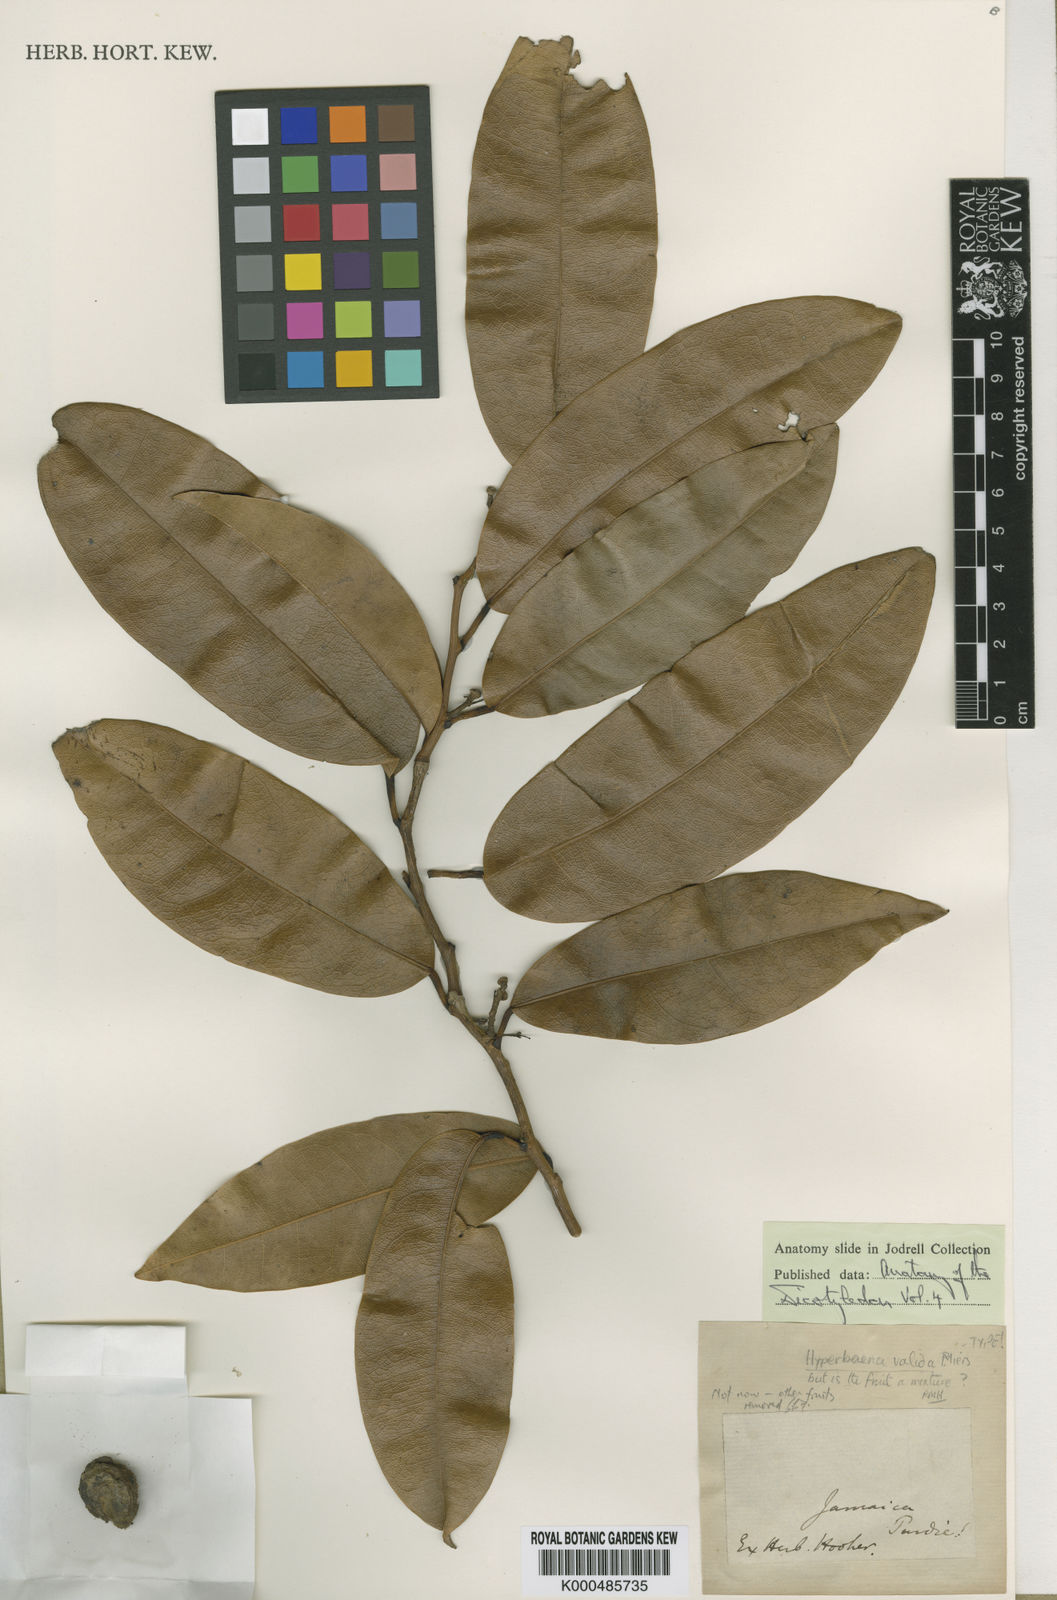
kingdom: Plantae
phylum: Tracheophyta
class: Magnoliopsida
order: Ranunculales
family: Menispermaceae
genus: Hyperbaena
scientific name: Hyperbaena valida
